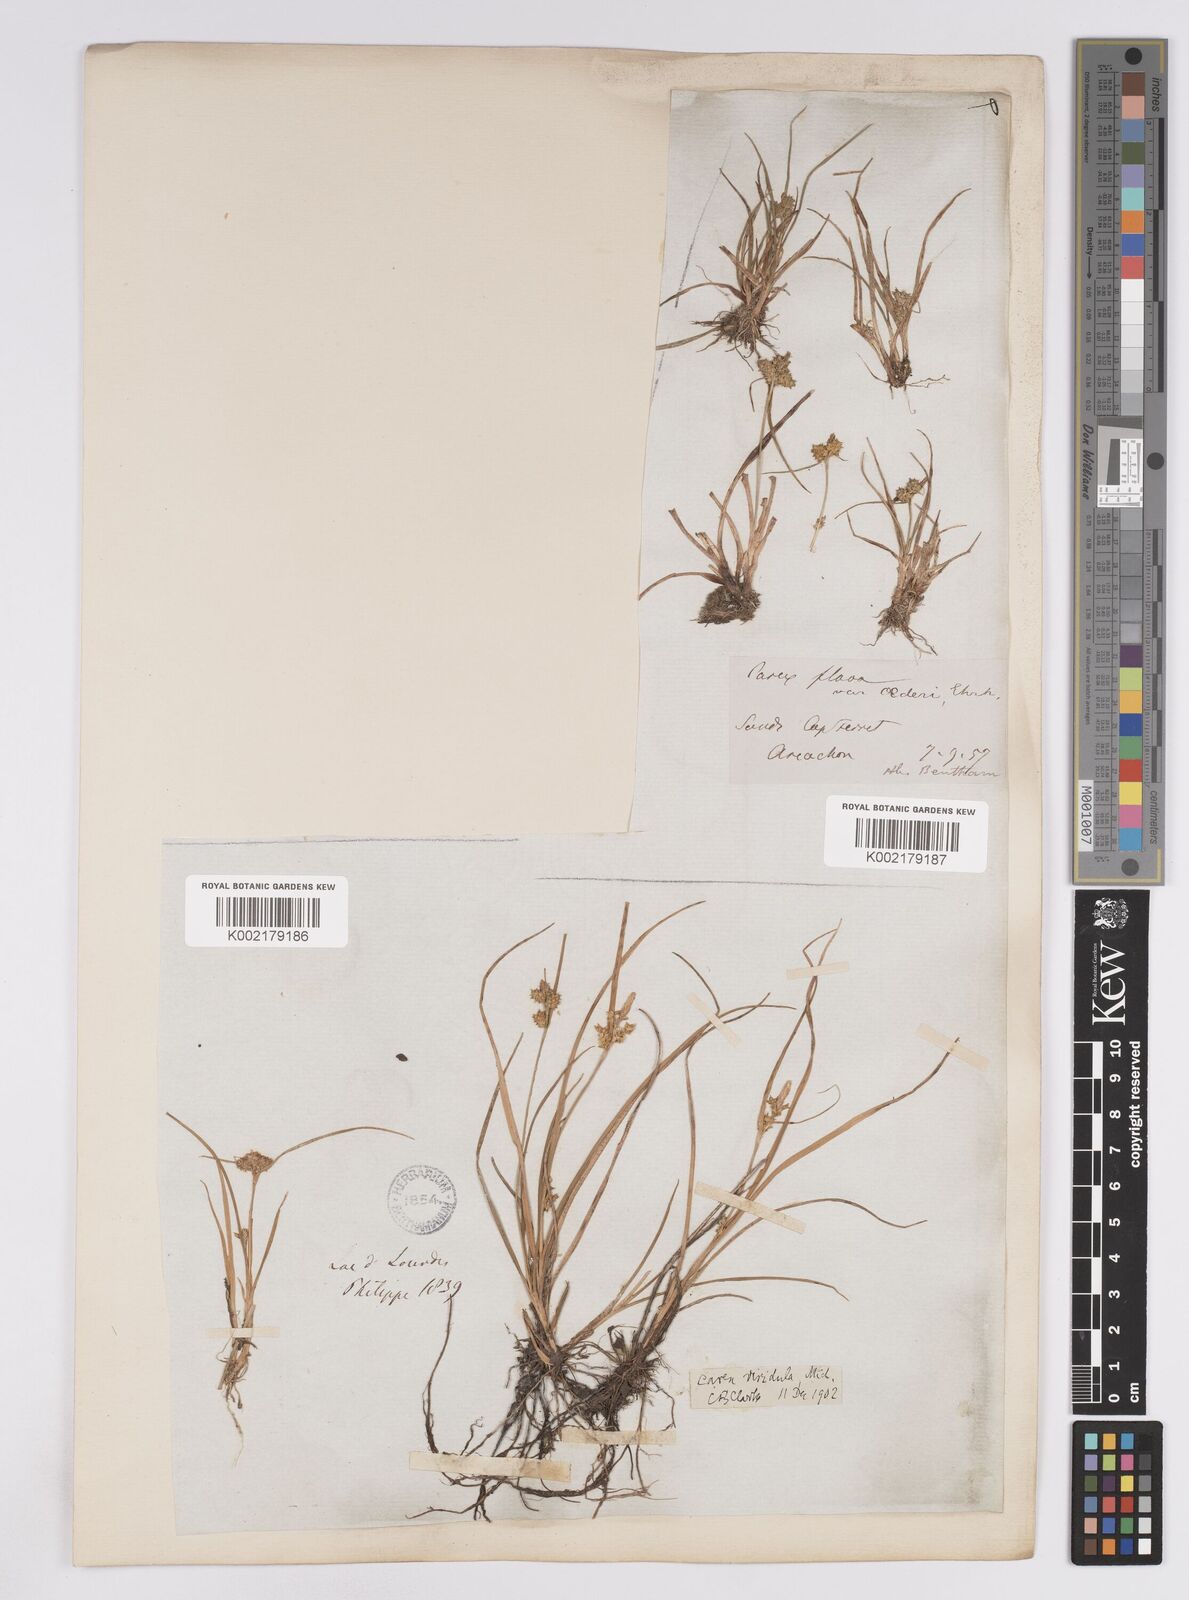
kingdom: Plantae
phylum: Tracheophyta
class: Liliopsida
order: Poales
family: Cyperaceae
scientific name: Cyperaceae
